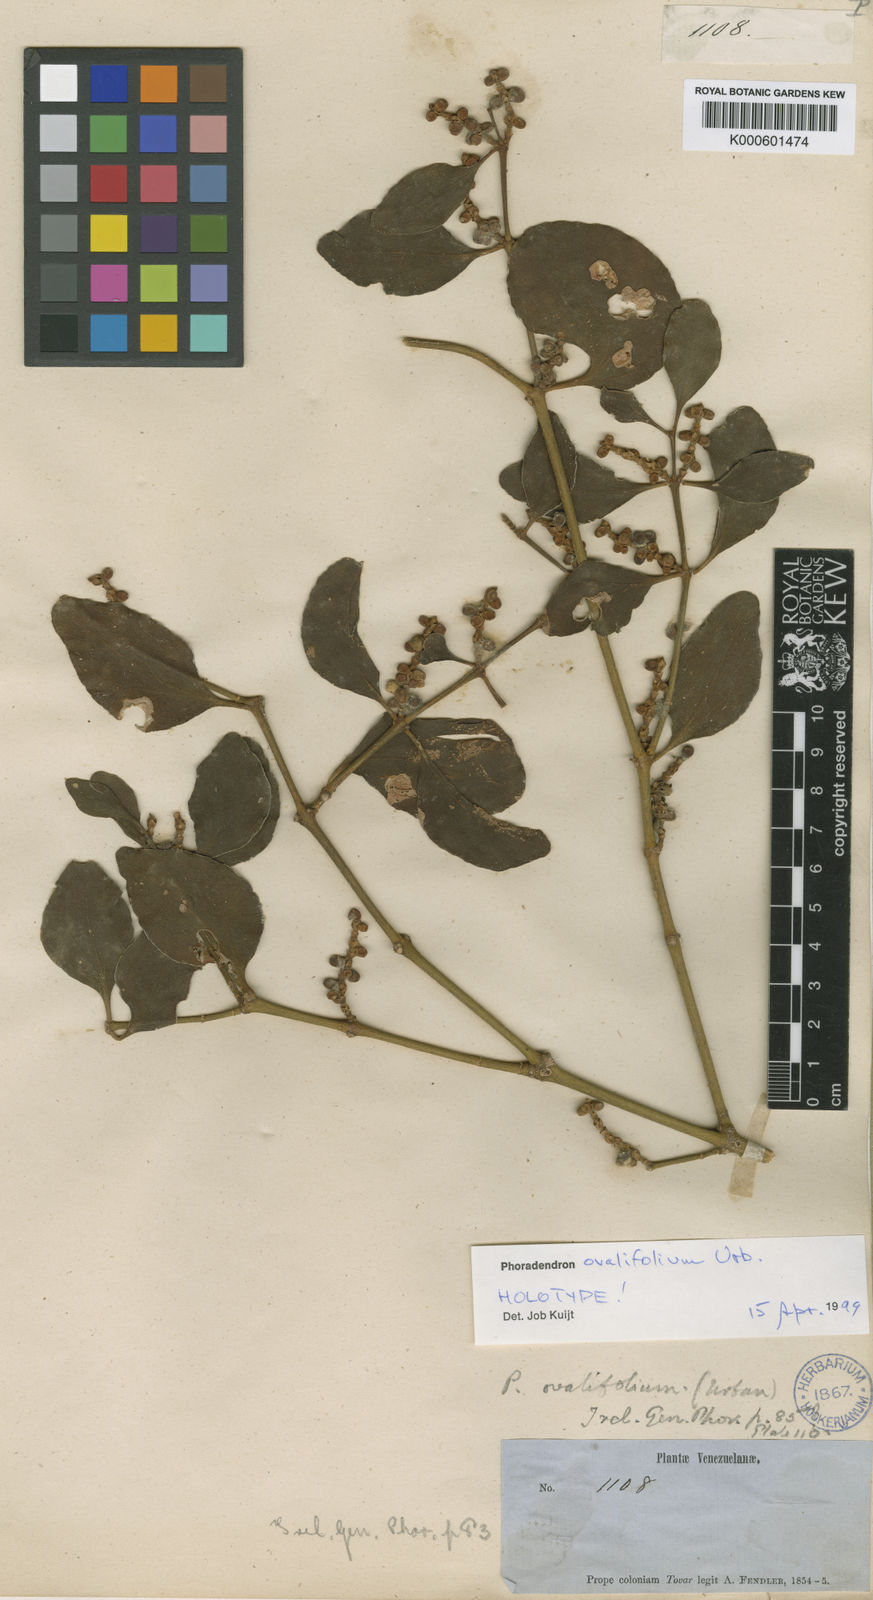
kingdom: Plantae
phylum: Tracheophyta
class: Magnoliopsida
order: Santalales
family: Viscaceae
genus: Phoradendron
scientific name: Phoradendron ovalifolium
